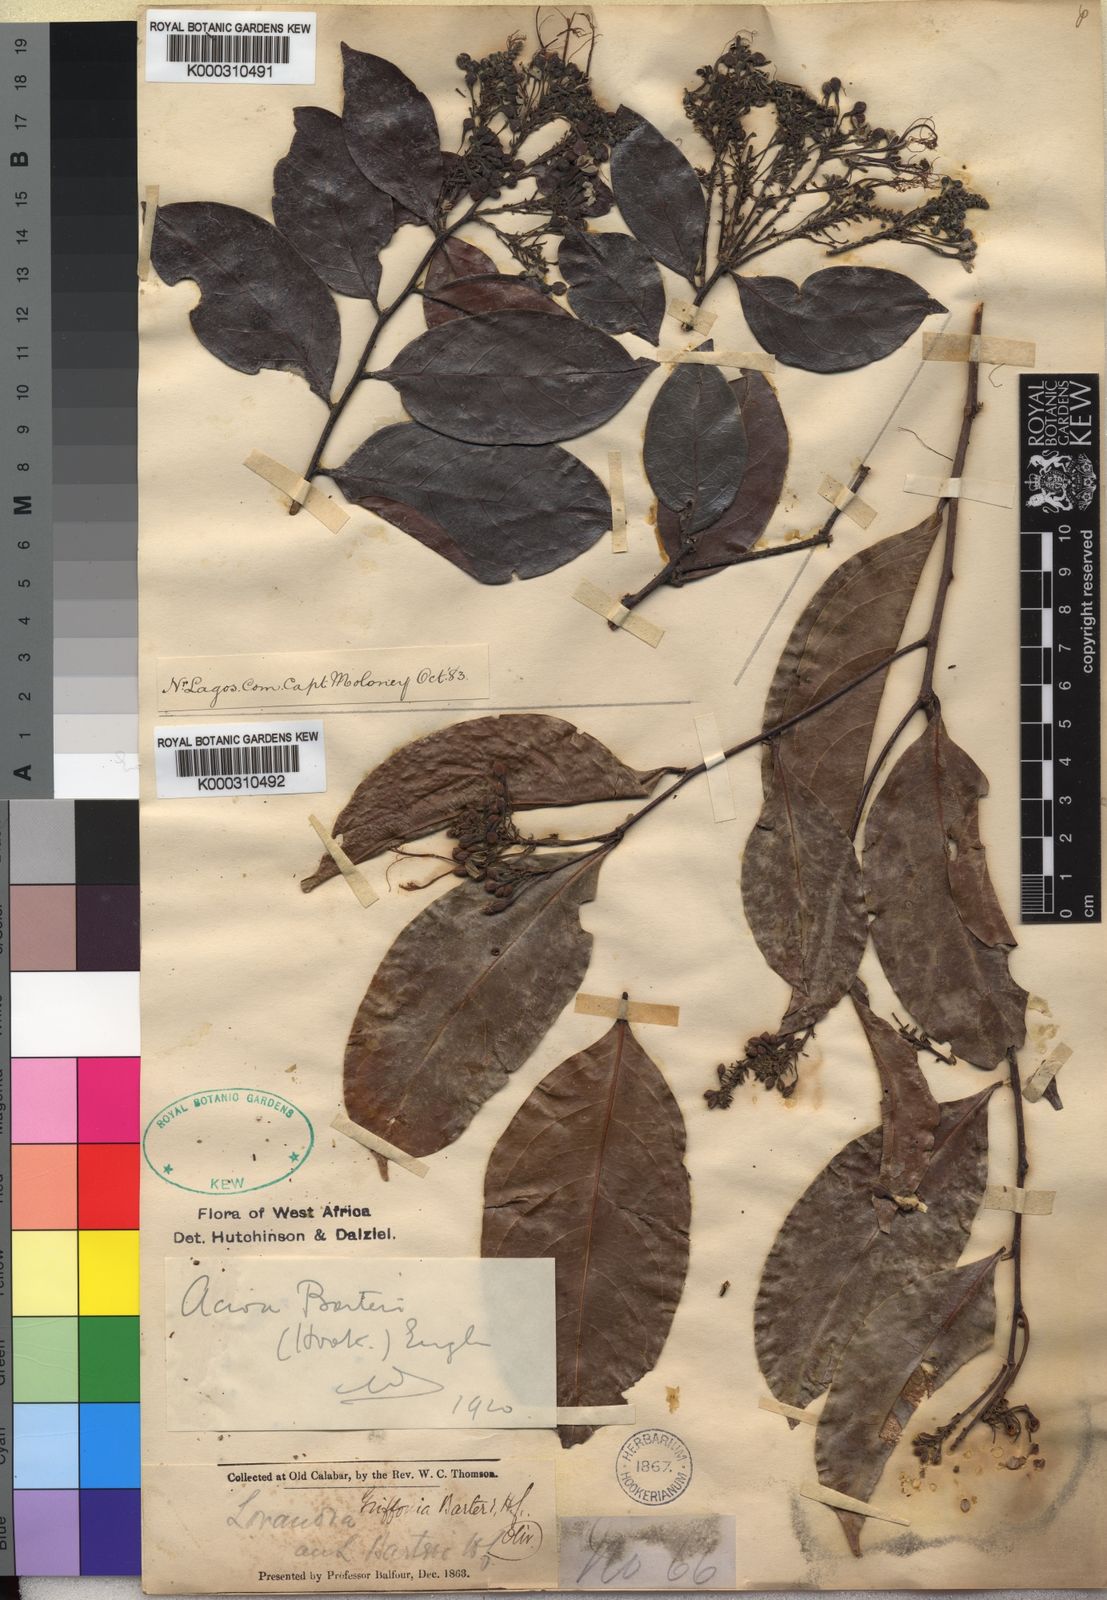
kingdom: Plantae
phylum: Tracheophyta
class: Magnoliopsida
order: Malpighiales
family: Chrysobalanaceae
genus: Dactyladenia
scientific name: Dactyladenia barteri
